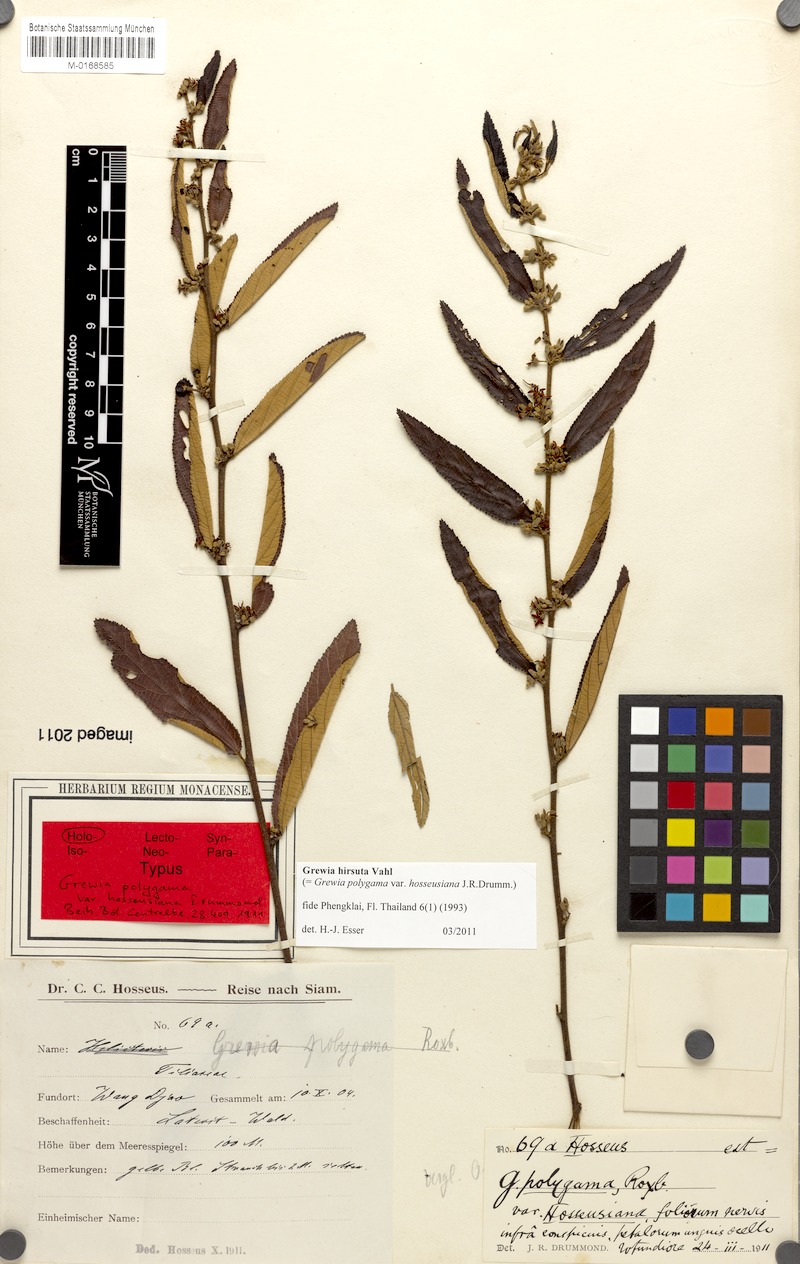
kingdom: Plantae
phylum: Tracheophyta
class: Magnoliopsida
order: Malvales
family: Malvaceae
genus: Grewia
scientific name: Grewia hirsuta
